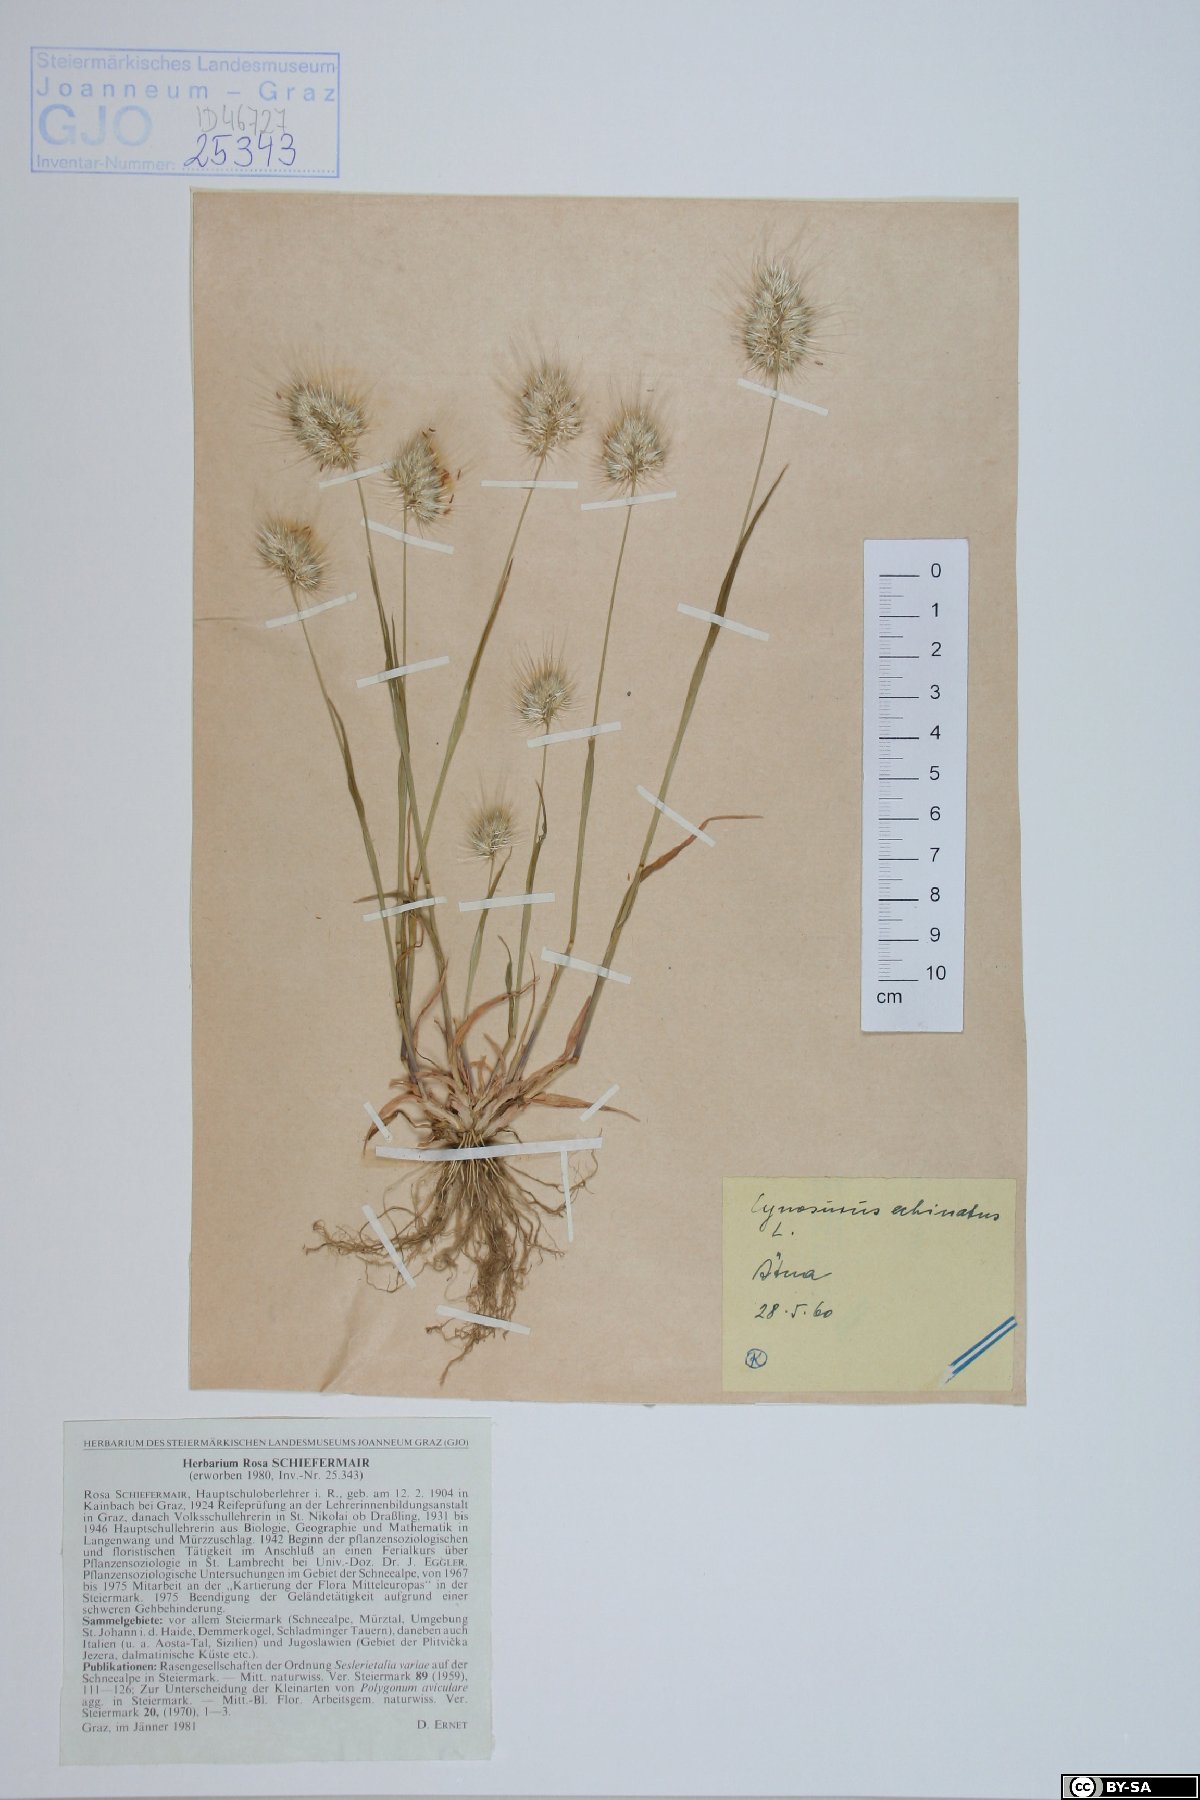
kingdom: Plantae
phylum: Tracheophyta
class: Liliopsida
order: Poales
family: Poaceae
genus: Cynosurus
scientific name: Cynosurus echinatus
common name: Rough dog's-tail
